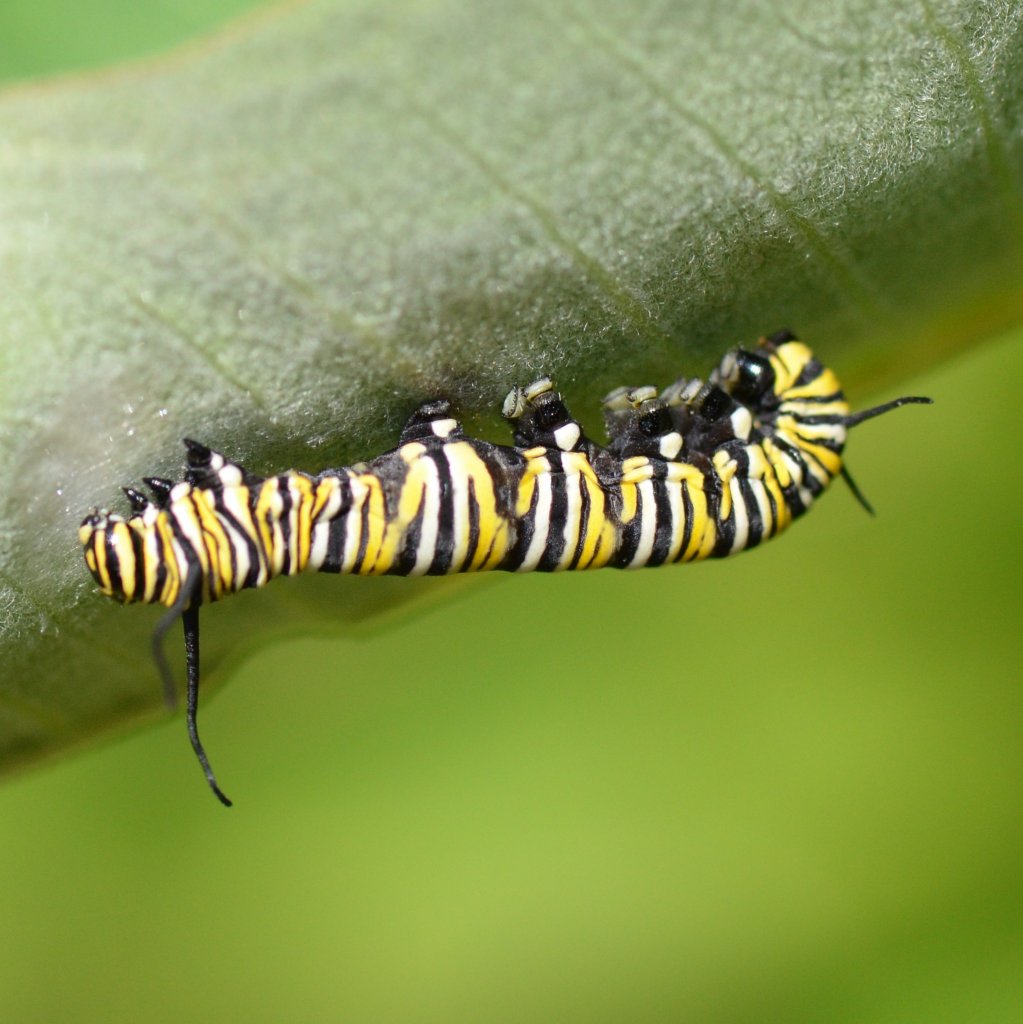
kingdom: Animalia
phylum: Arthropoda
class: Insecta
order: Lepidoptera
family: Nymphalidae
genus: Danaus
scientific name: Danaus plexippus
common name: Monarch
